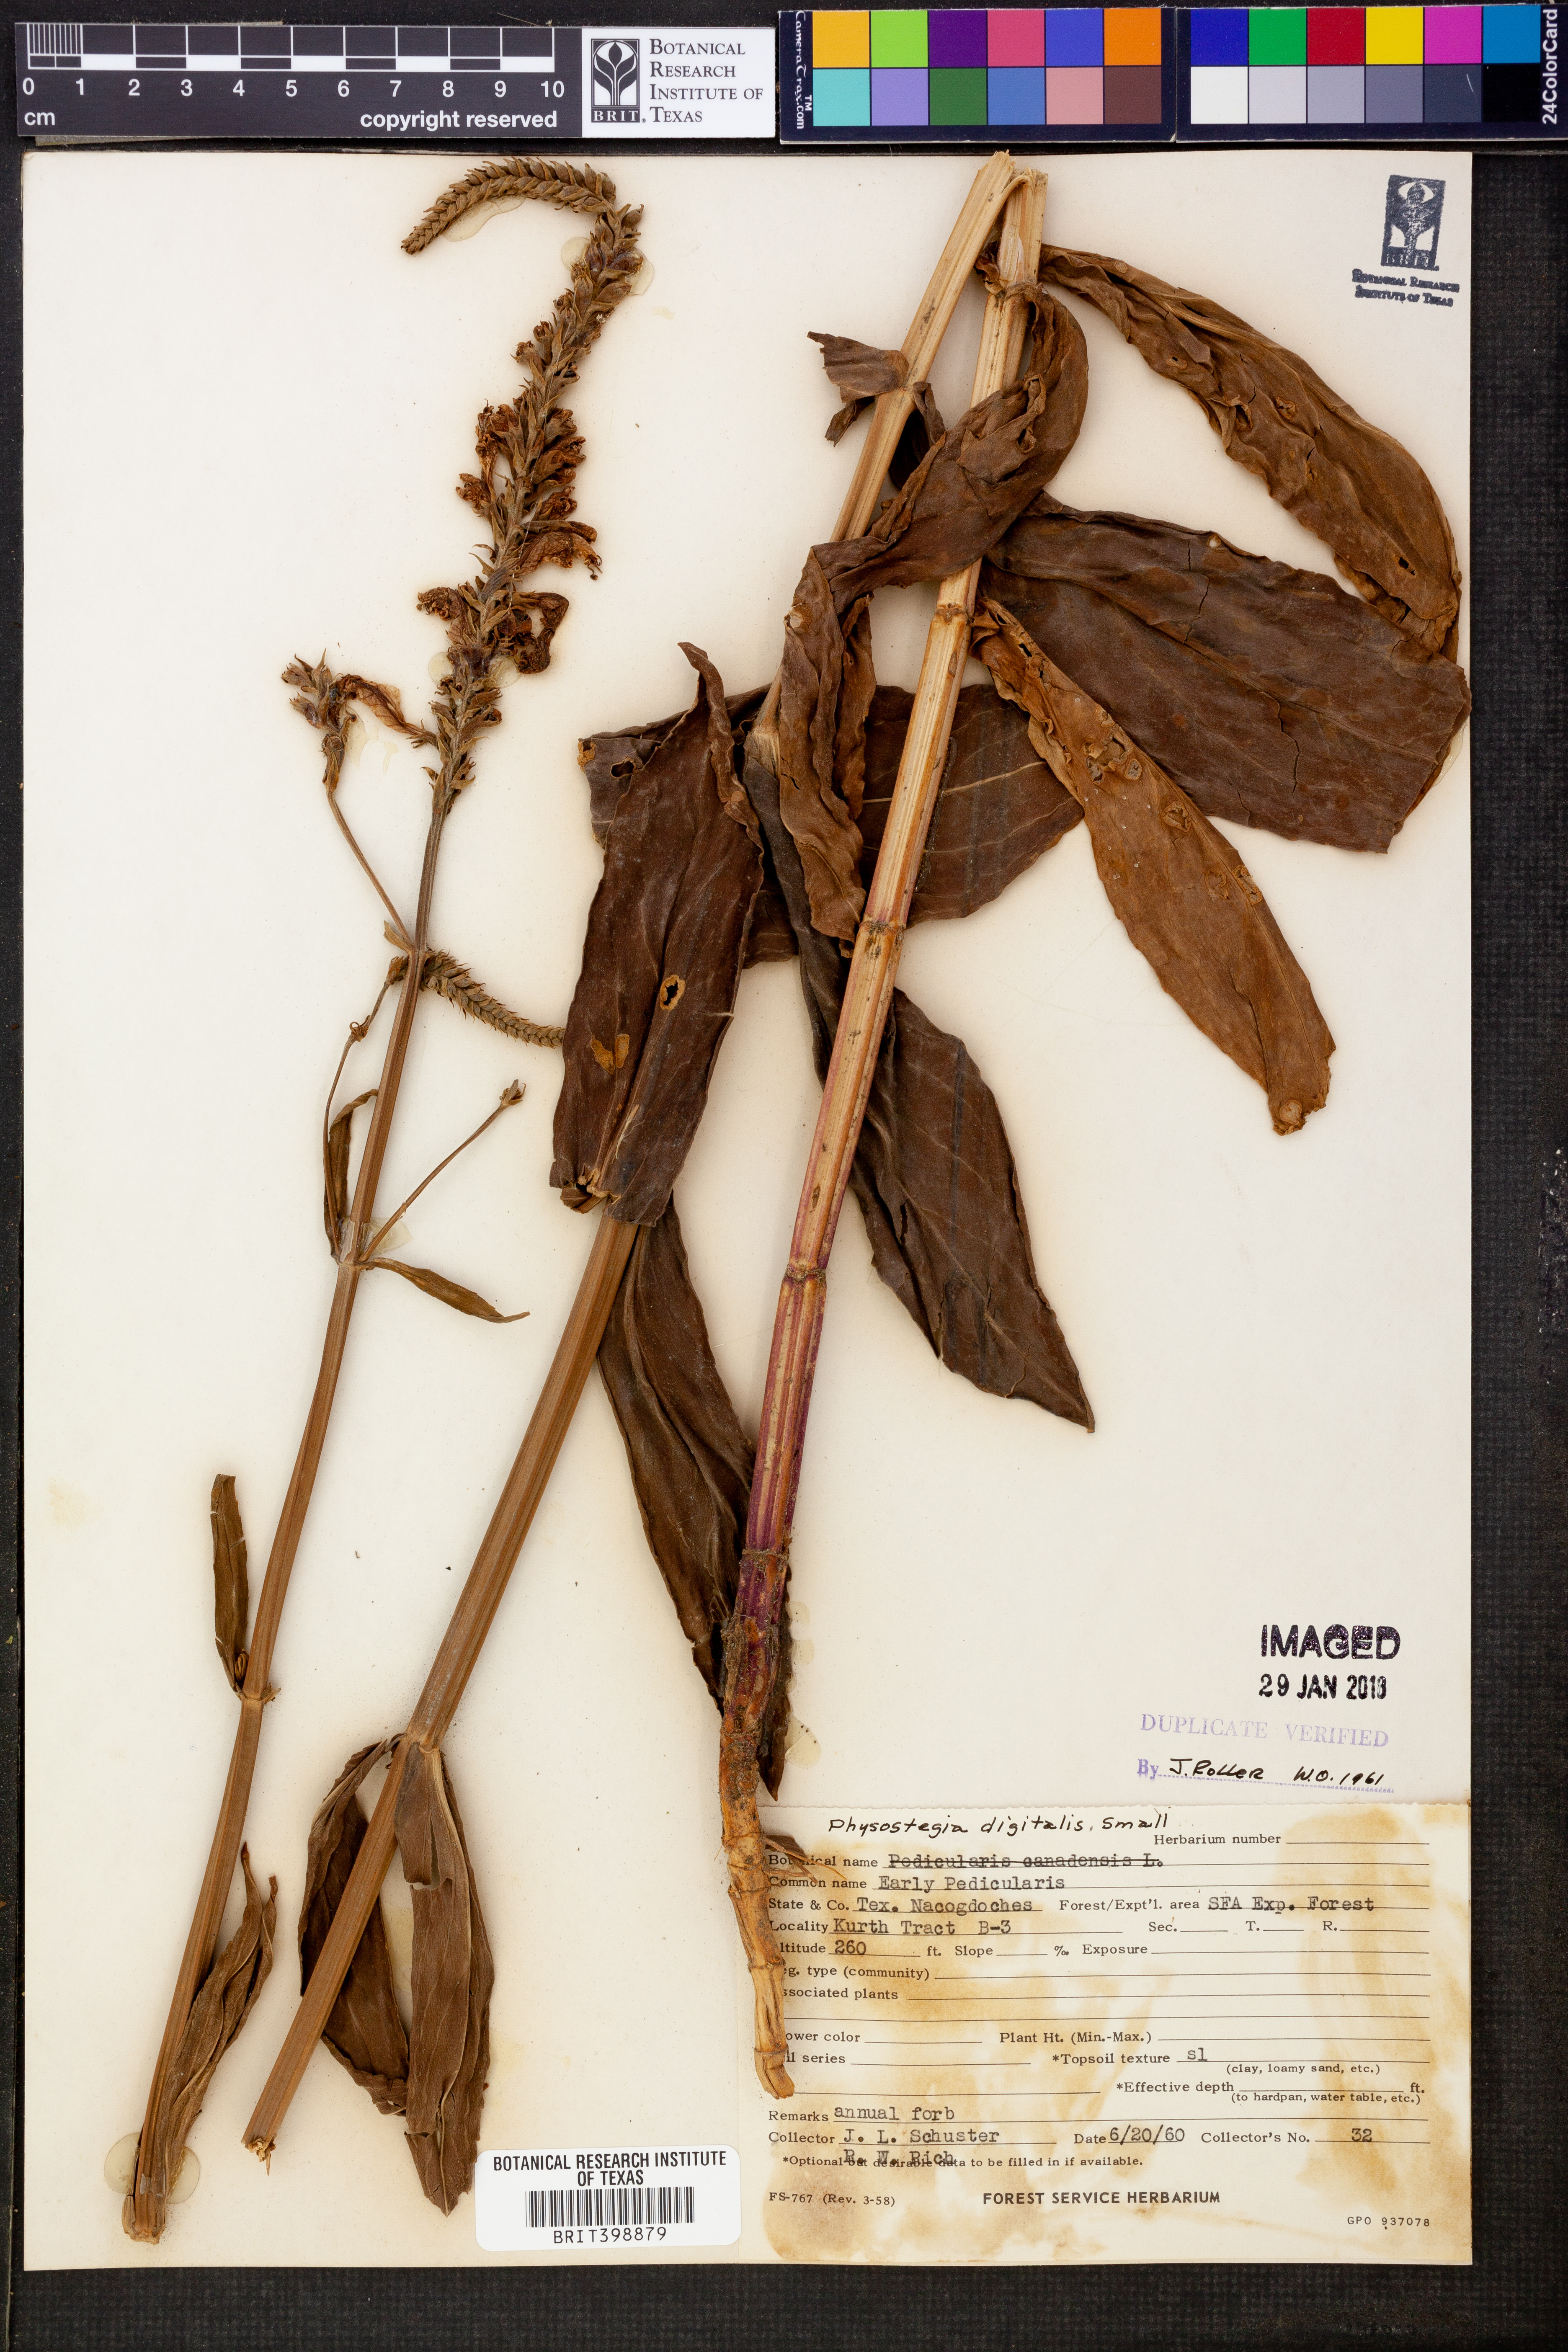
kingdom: Plantae
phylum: Tracheophyta
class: Magnoliopsida
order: Lamiales
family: Lamiaceae
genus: Physostegia
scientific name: Physostegia digitalis
